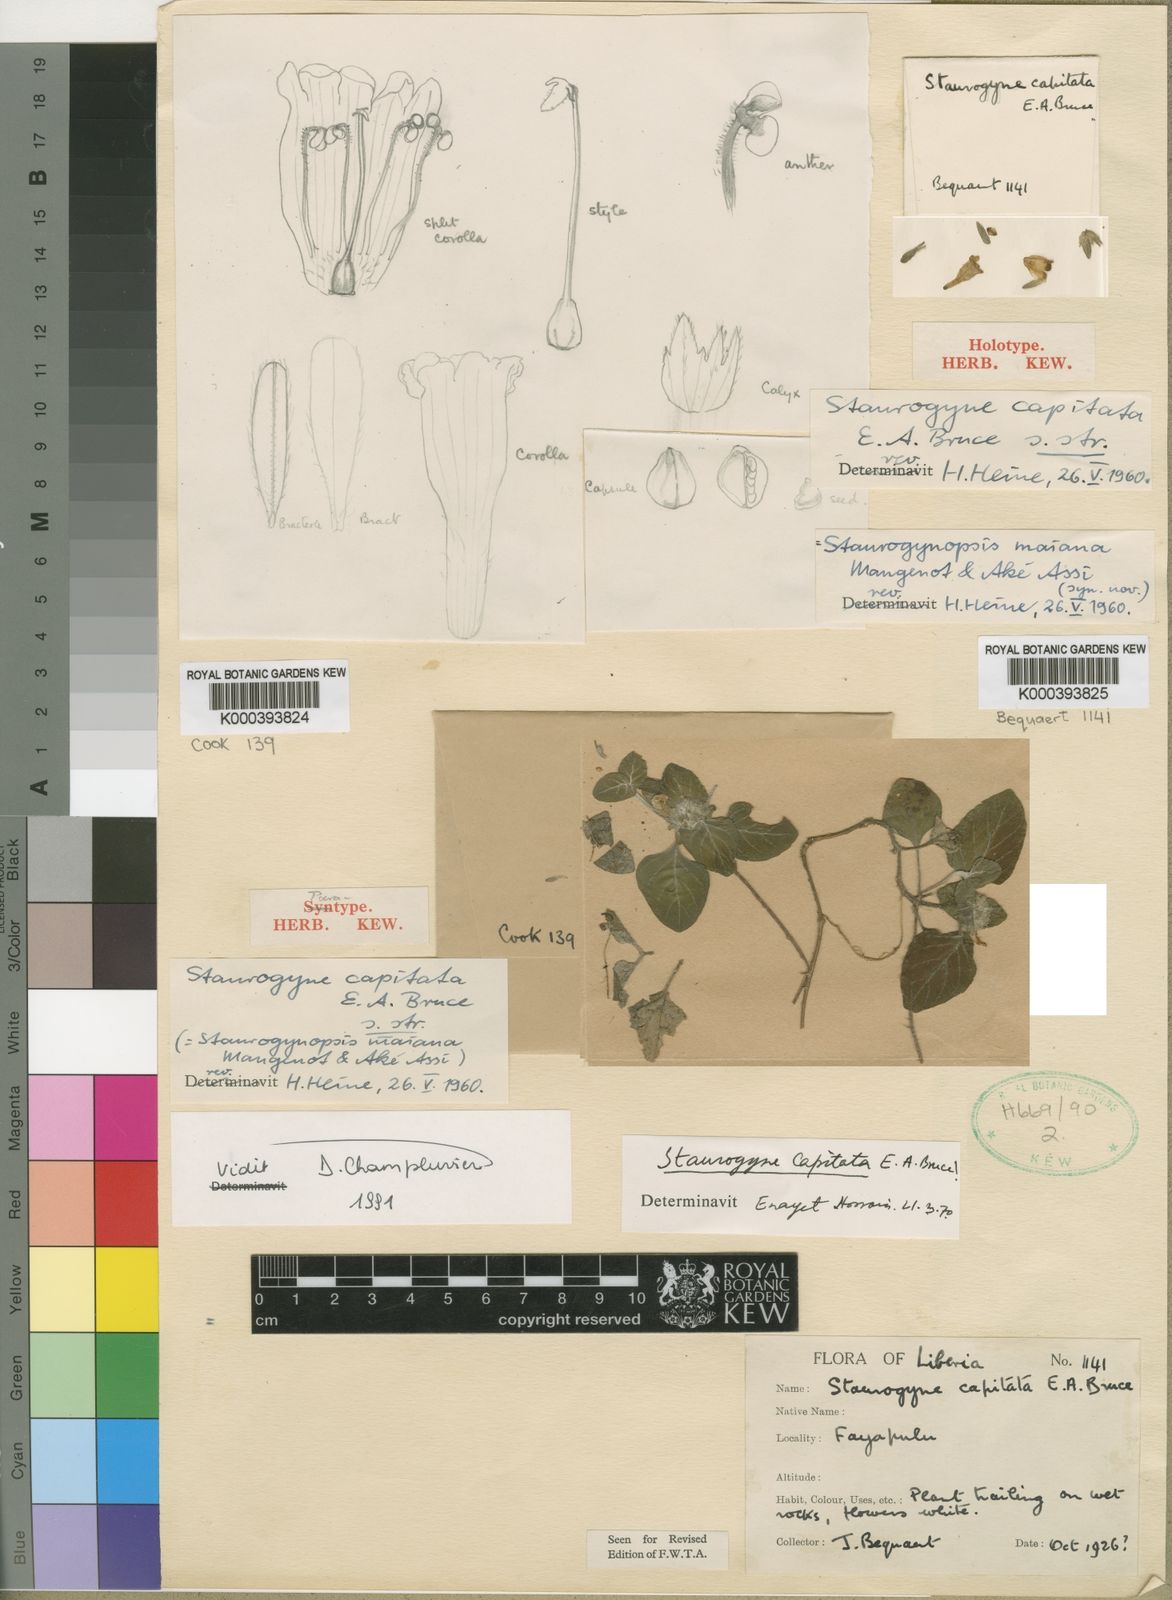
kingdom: Plantae
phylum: Tracheophyta
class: Magnoliopsida
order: Lamiales
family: Acanthaceae
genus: Staurogyne
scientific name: Staurogyne capitata
